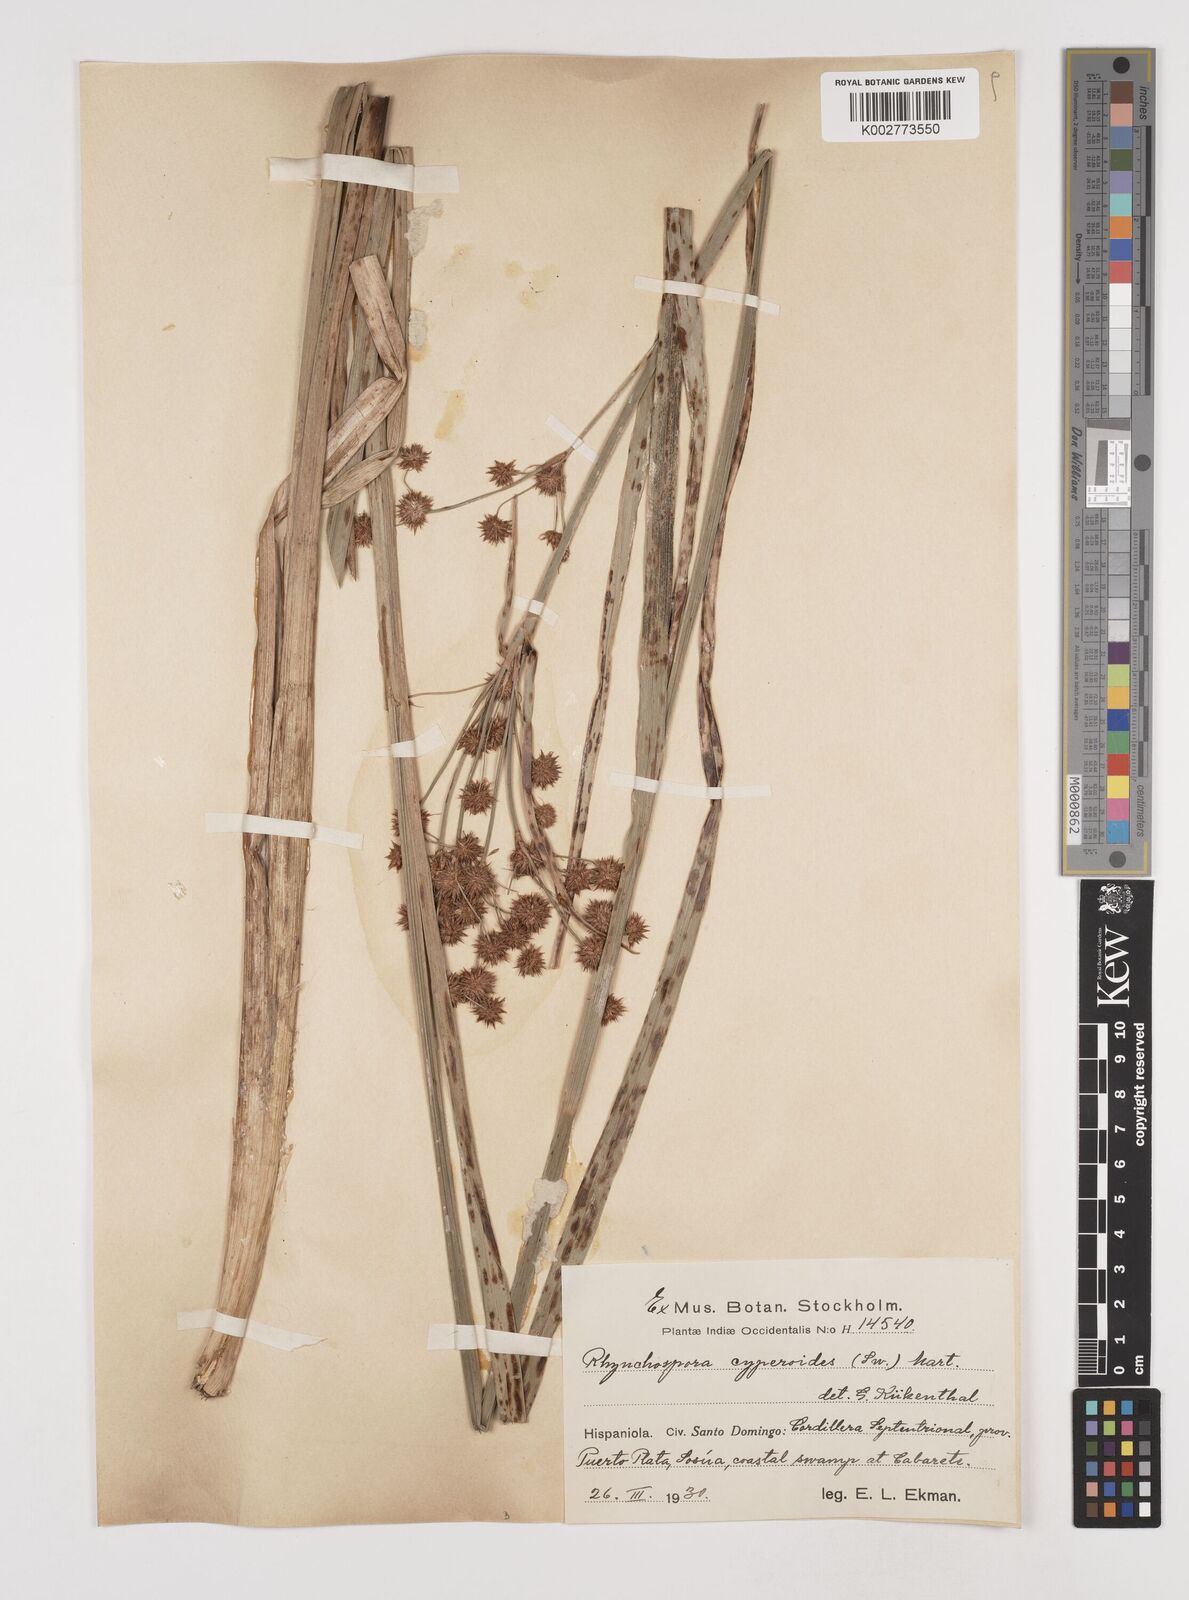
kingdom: Plantae
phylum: Tracheophyta
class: Liliopsida
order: Poales
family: Cyperaceae
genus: Rhynchospora
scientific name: Rhynchospora holoschoenoides
